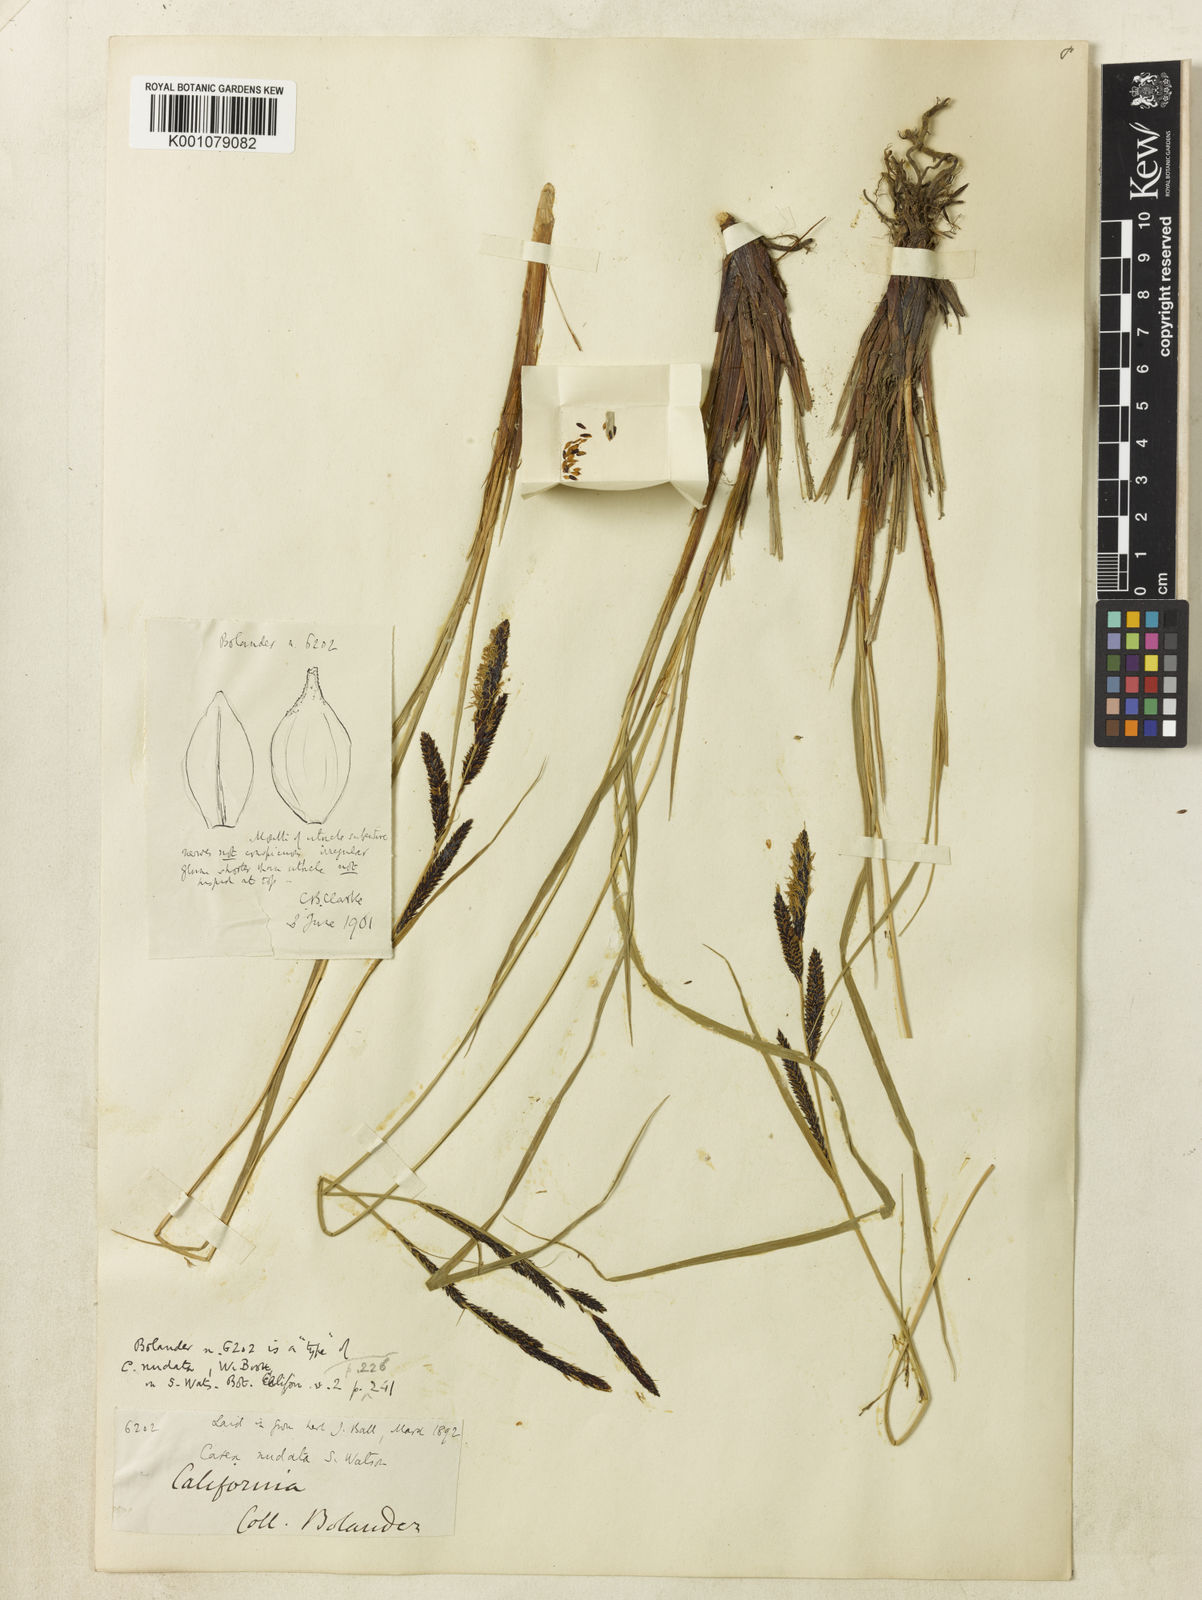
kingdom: Plantae
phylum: Tracheophyta
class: Liliopsida
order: Poales
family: Cyperaceae
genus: Carex
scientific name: Carex
